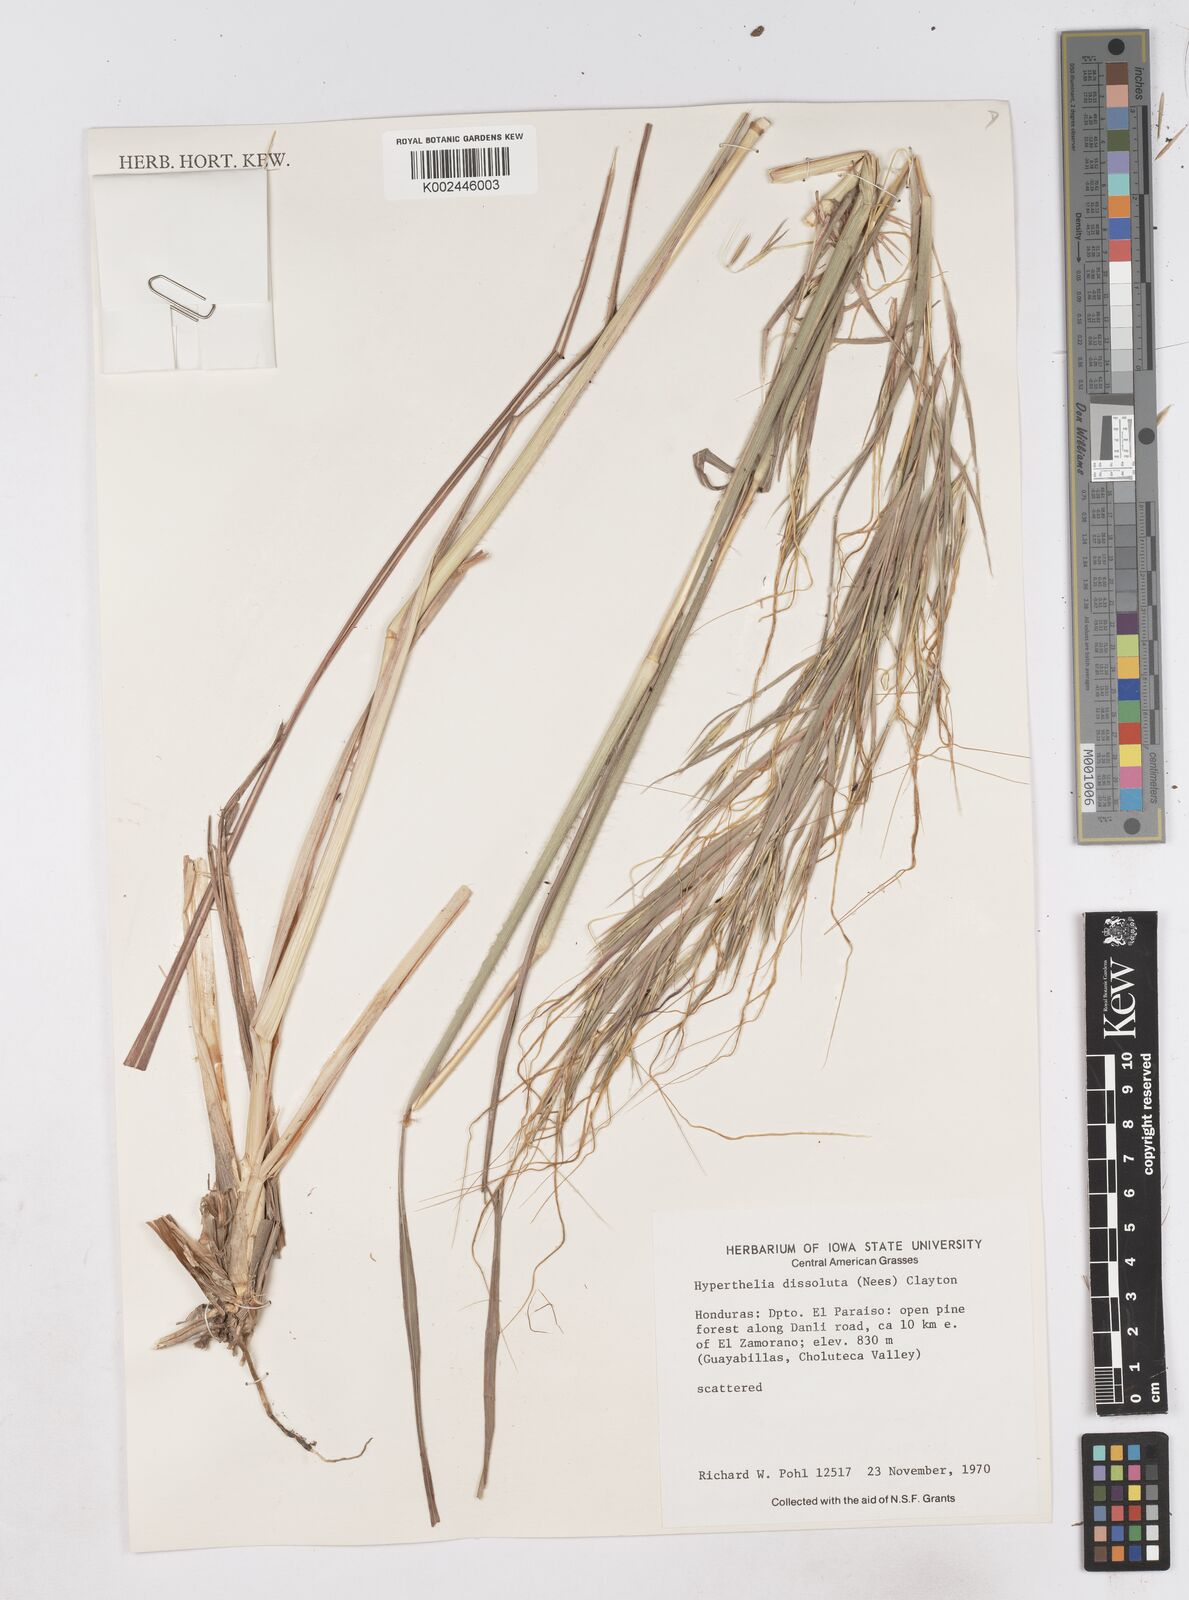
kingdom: Plantae
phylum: Tracheophyta
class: Liliopsida
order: Poales
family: Poaceae
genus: Hyperthelia
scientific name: Hyperthelia dissoluta
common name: Yellow thatching grass
